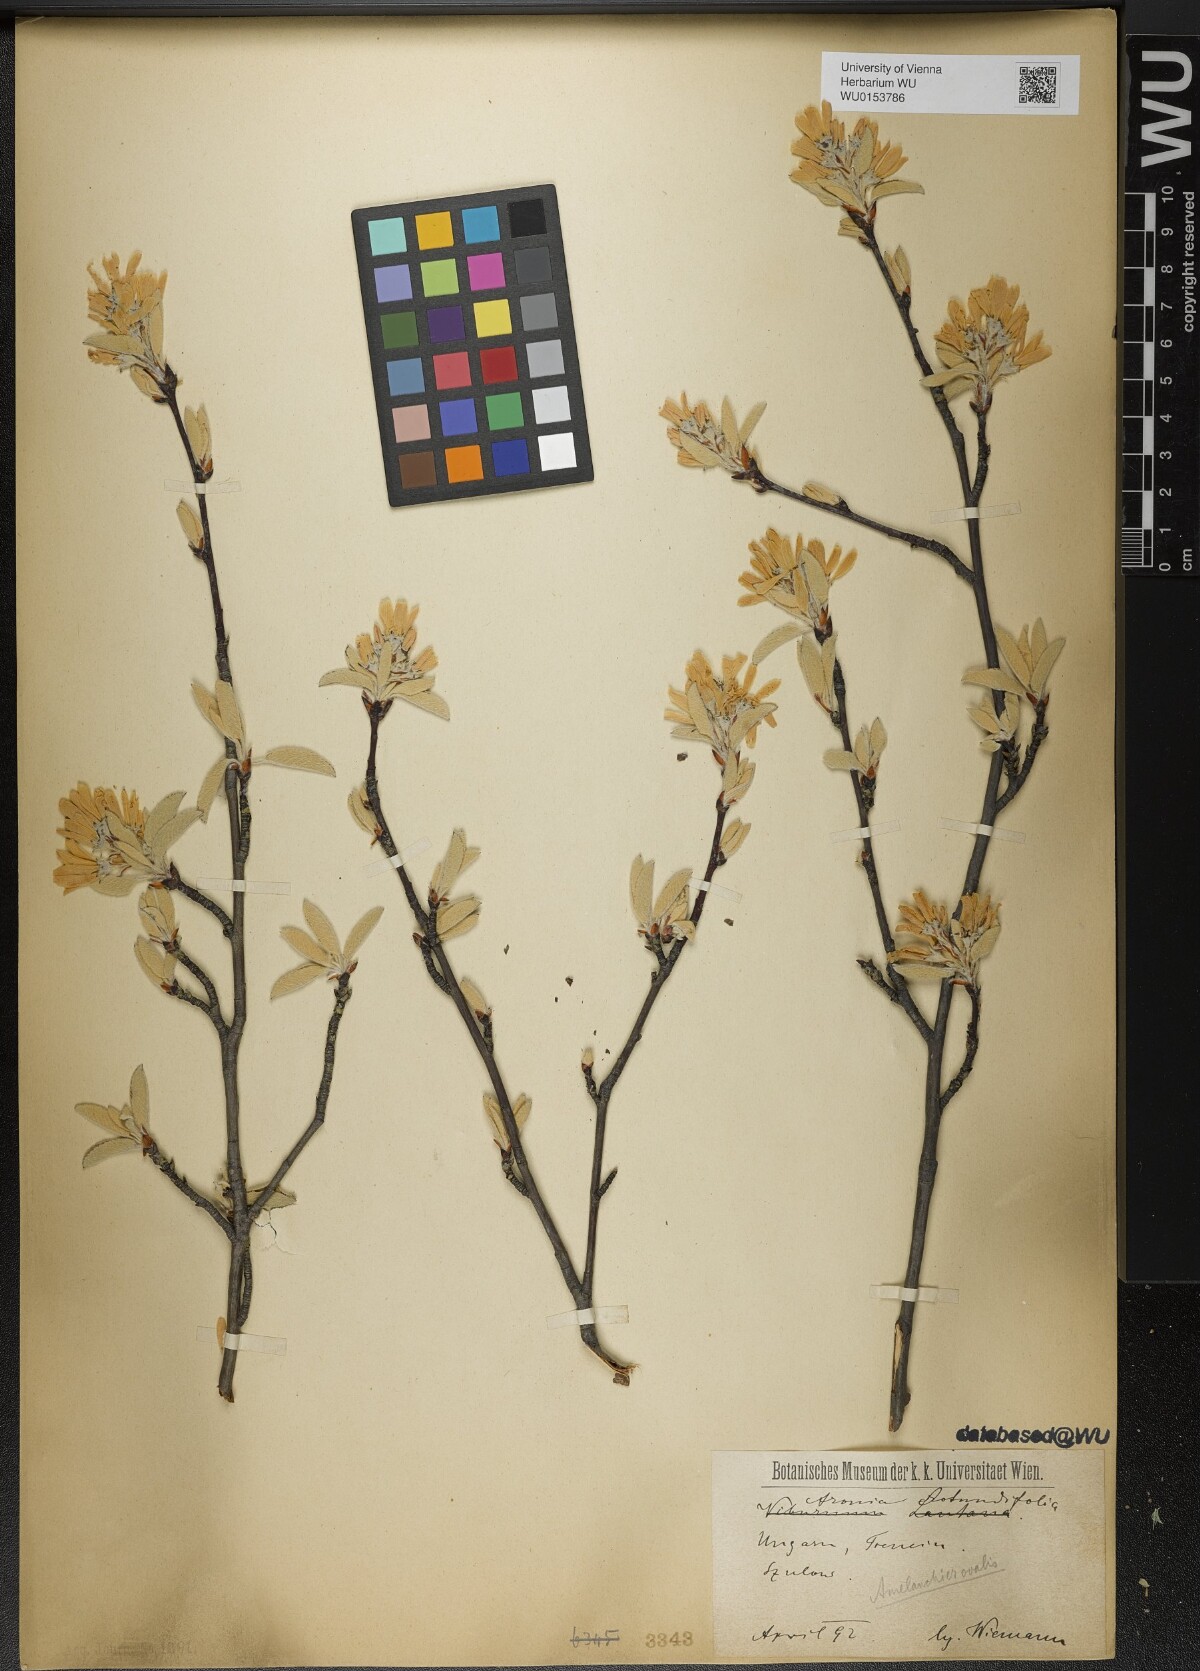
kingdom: Plantae
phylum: Tracheophyta
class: Magnoliopsida
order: Rosales
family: Rosaceae
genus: Amelanchier
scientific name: Amelanchier ovalis
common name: Serviceberry
